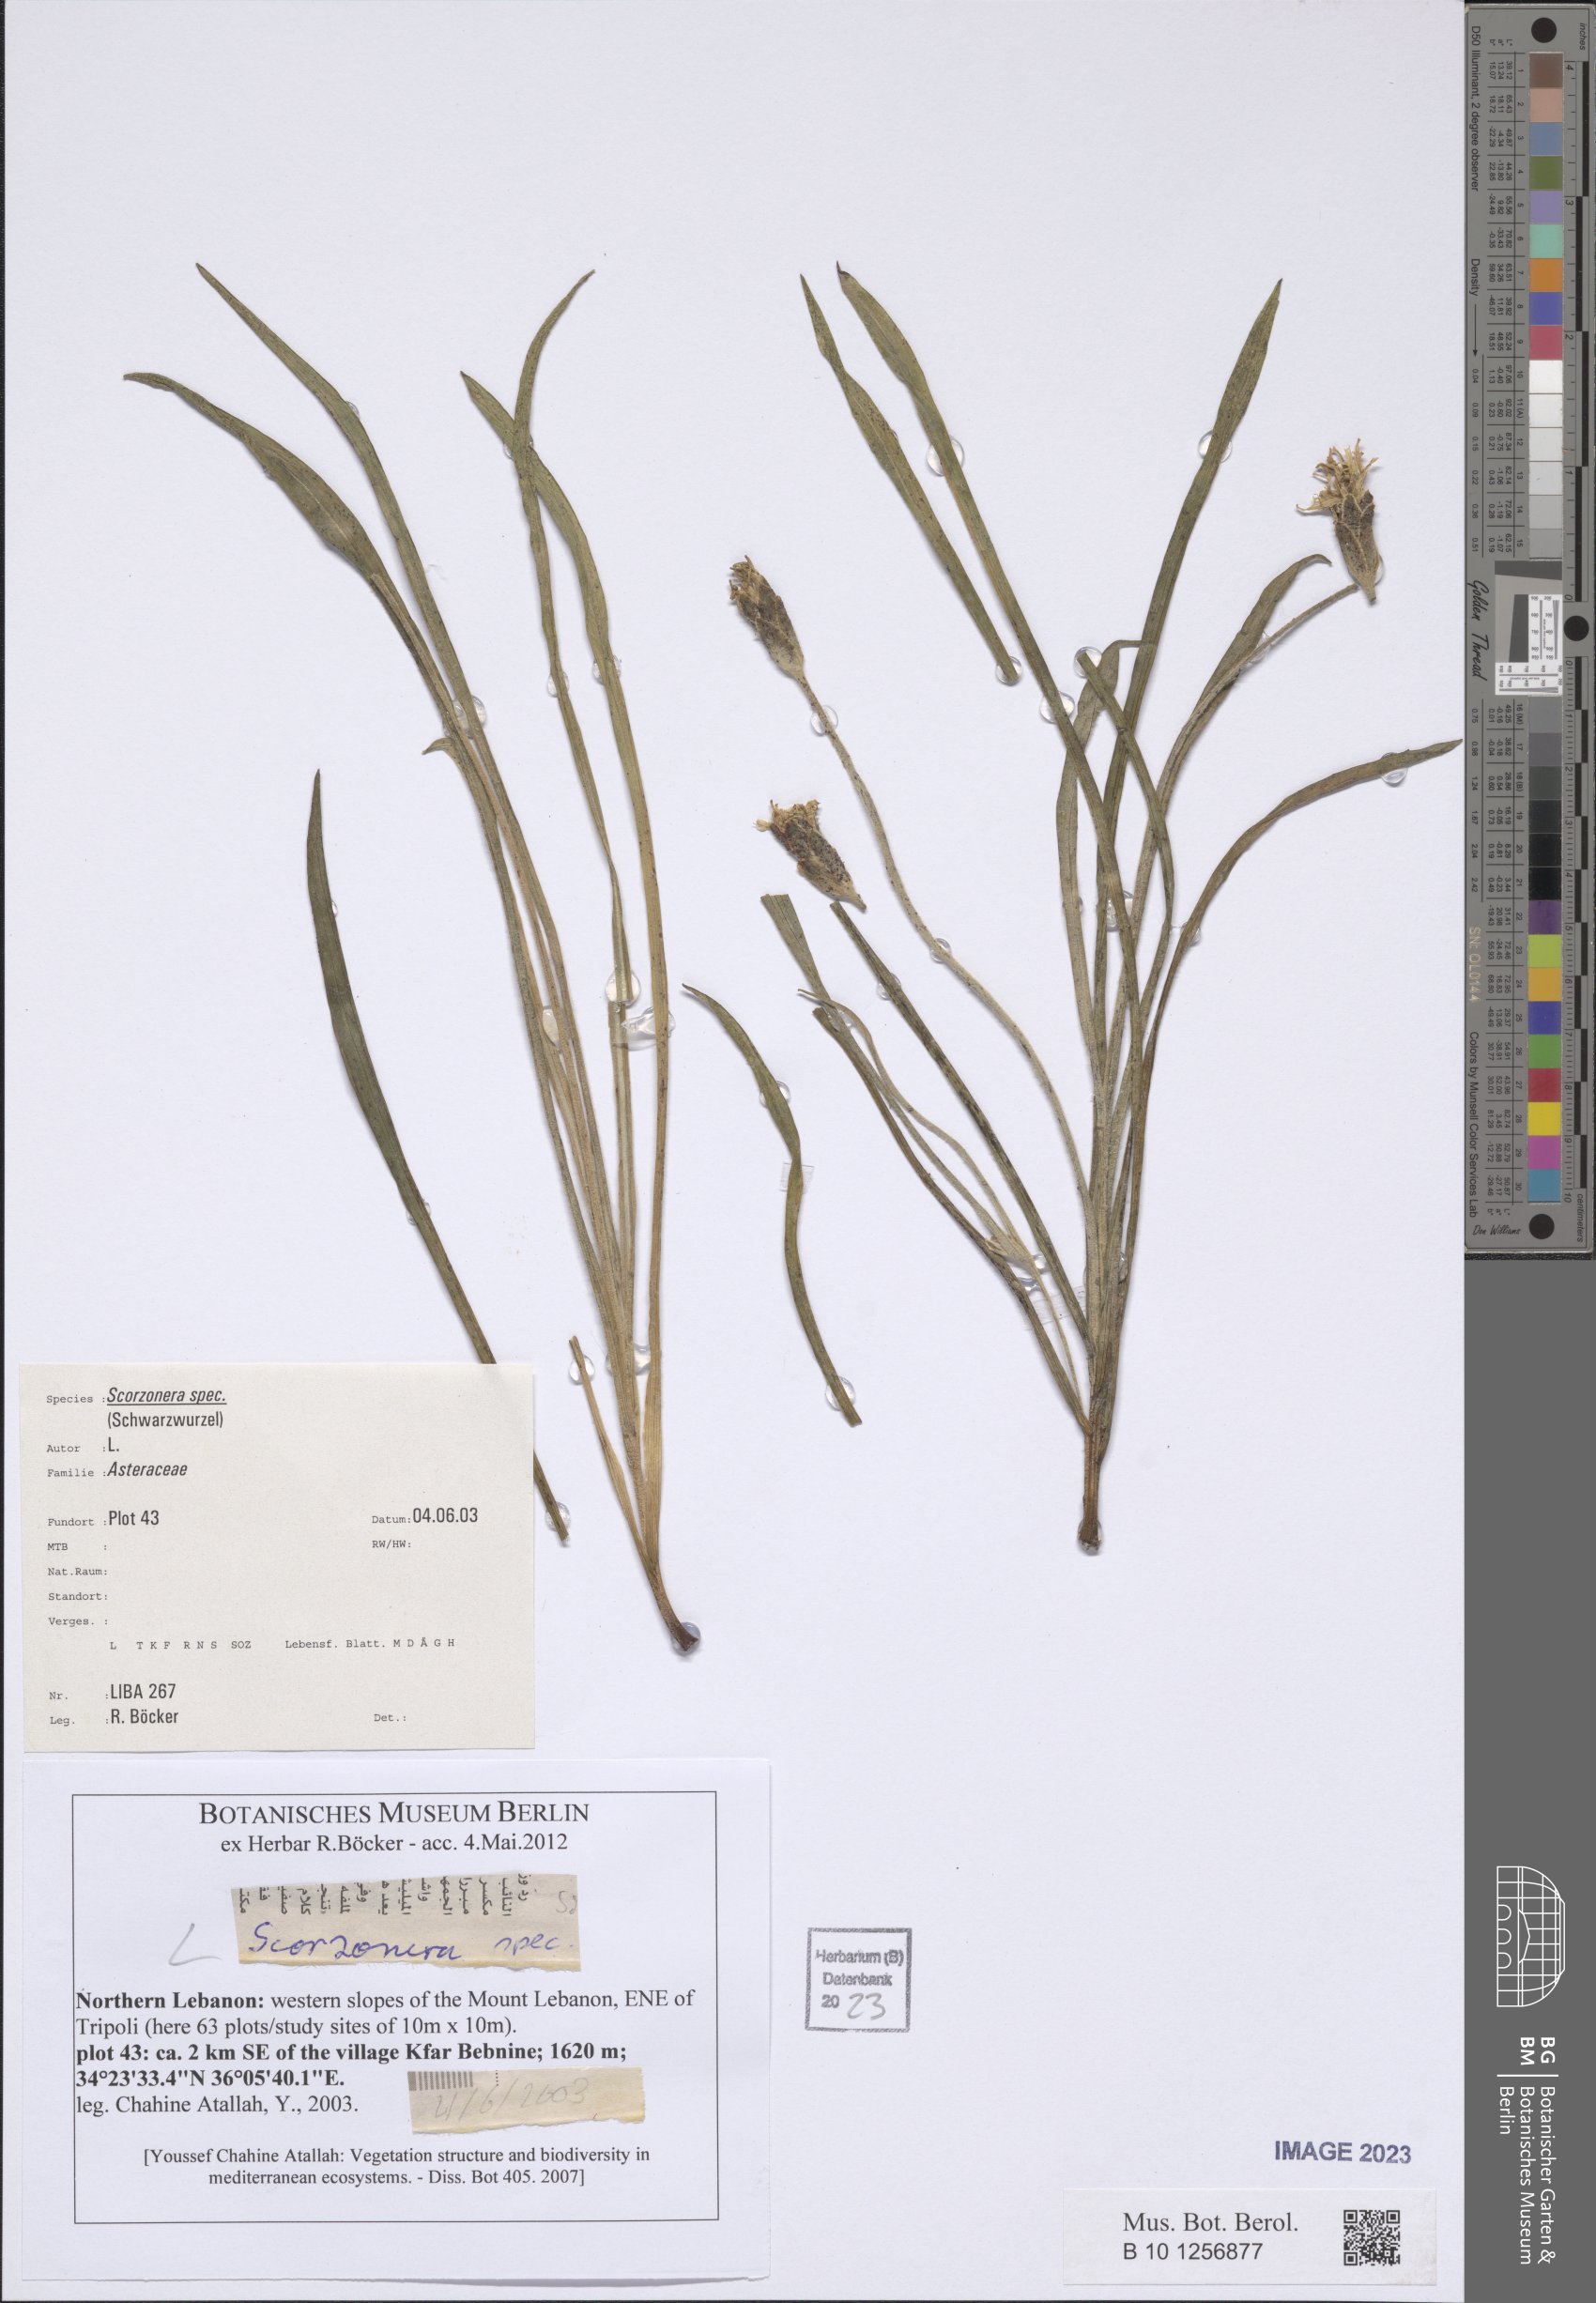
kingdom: Plantae
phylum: Tracheophyta
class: Magnoliopsida
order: Asterales
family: Asteraceae
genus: Scorzonera
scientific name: Scorzonera
